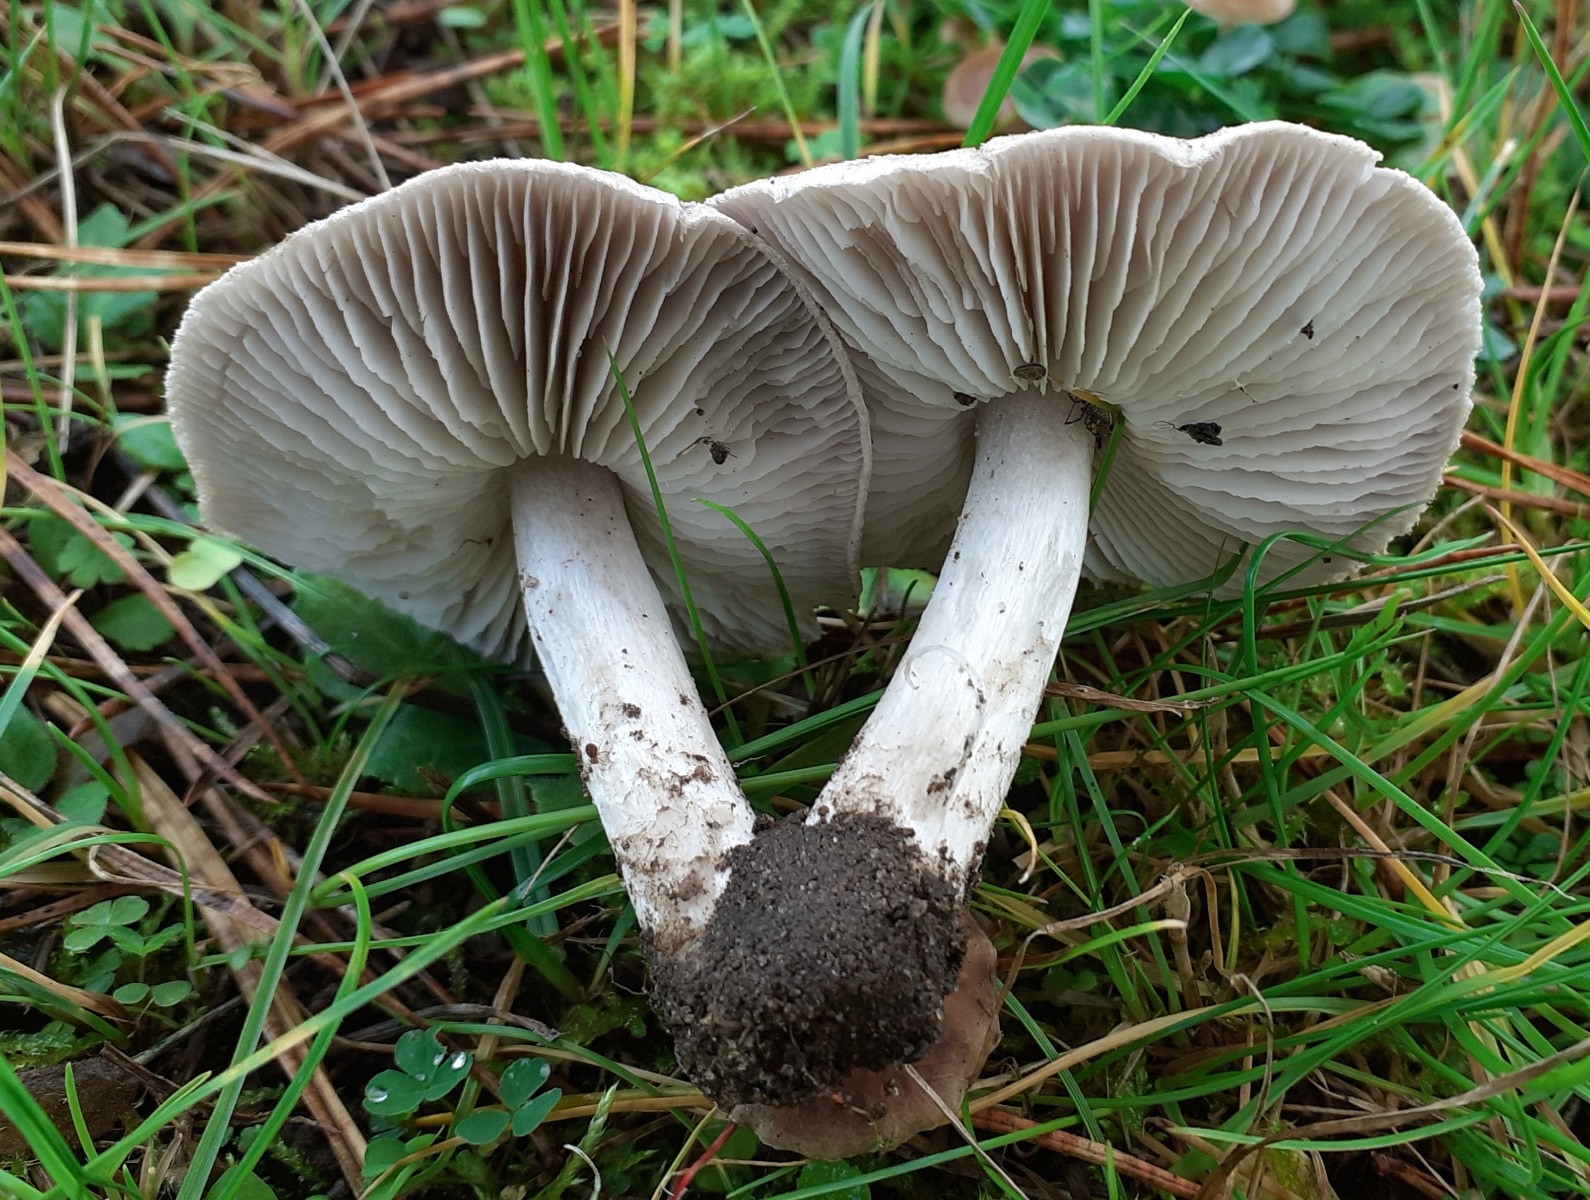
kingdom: Fungi
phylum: Basidiomycota
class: Agaricomycetes
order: Agaricales
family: Tricholomataceae
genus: Tricholoma
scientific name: Tricholoma terreum
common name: jordfarvet ridderhat
